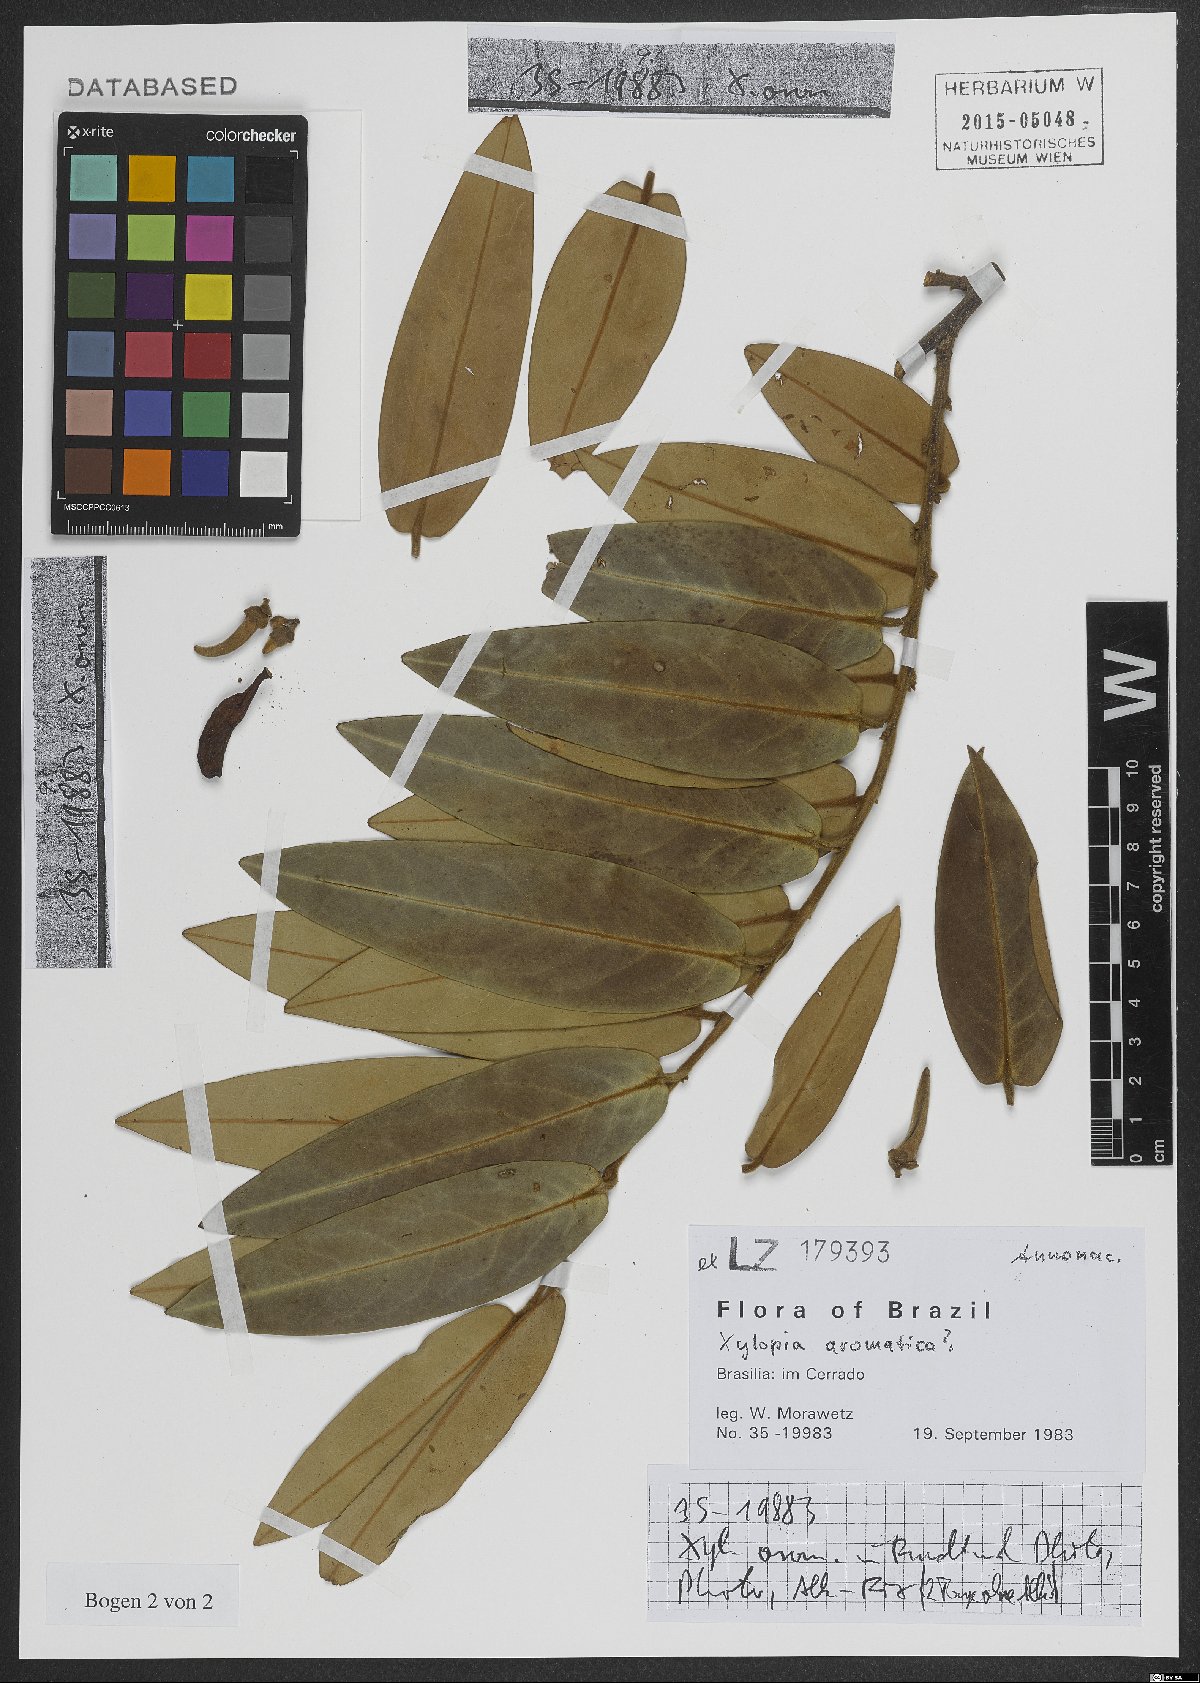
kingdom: Plantae
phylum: Tracheophyta
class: Magnoliopsida
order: Magnoliales
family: Annonaceae
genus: Xylopia
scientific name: Xylopia aromatica
